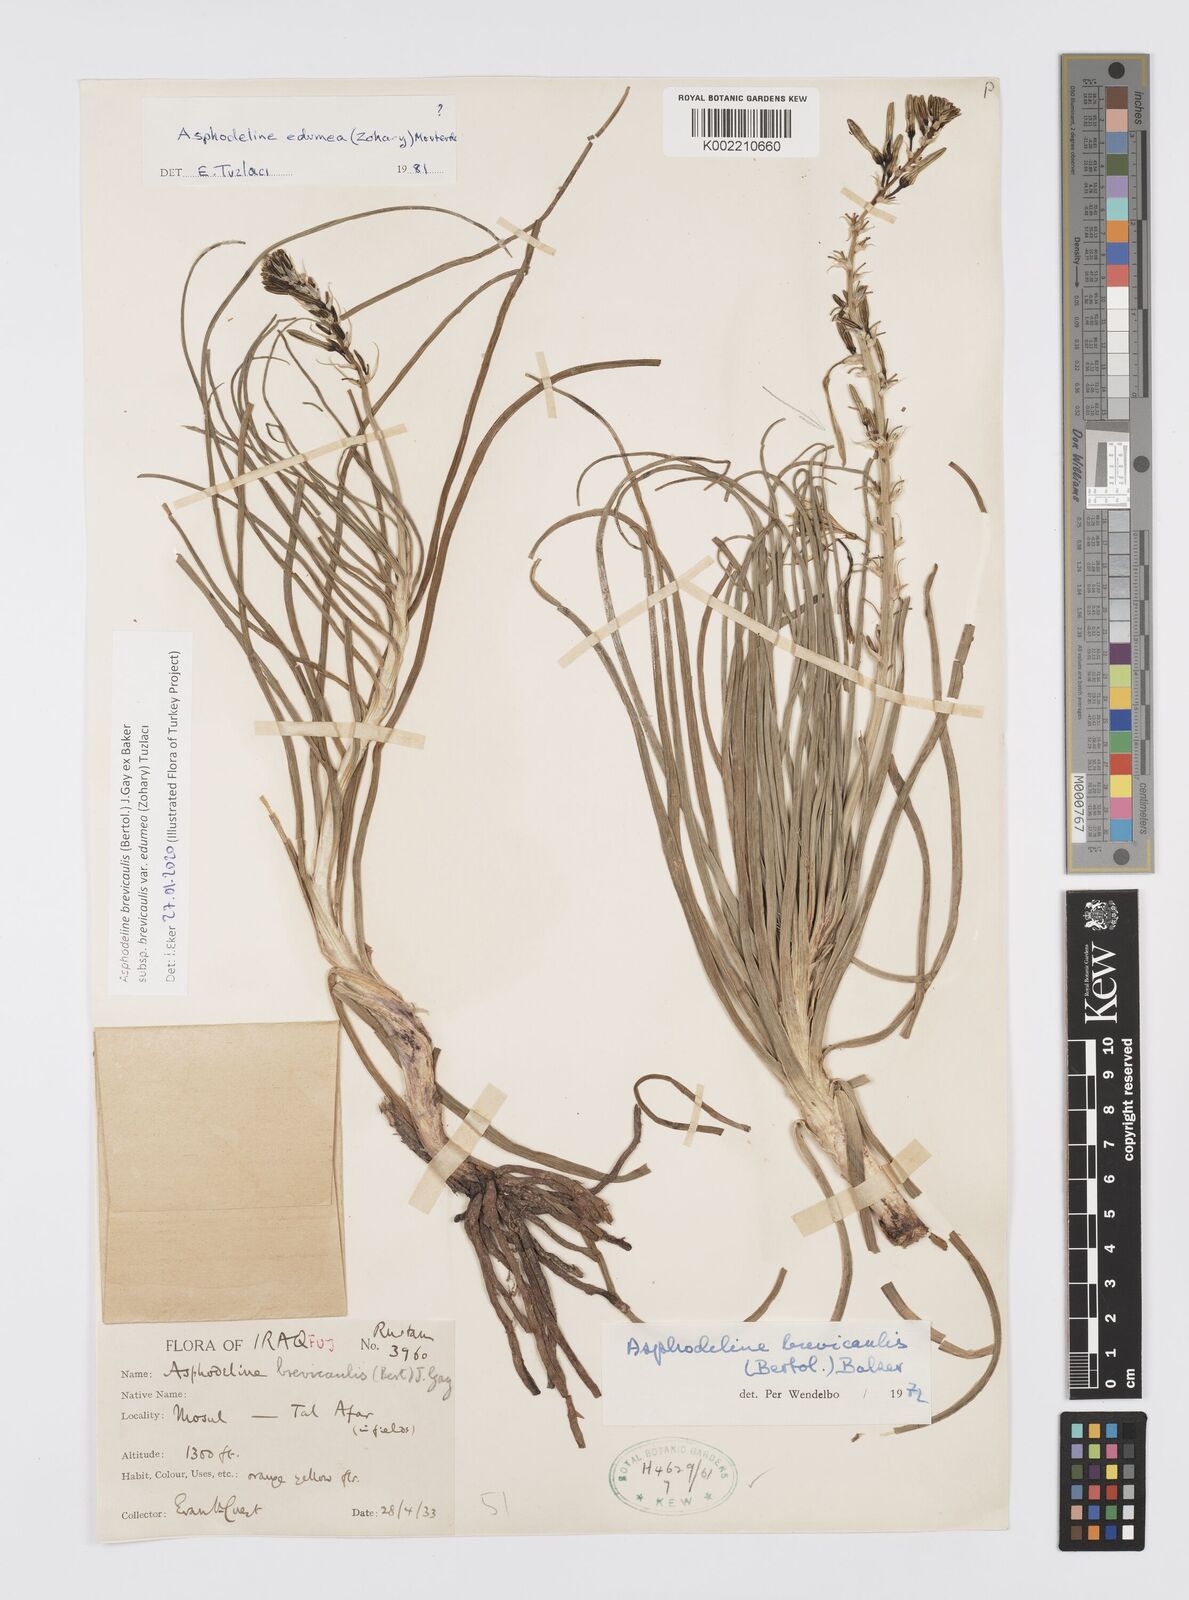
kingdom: Plantae
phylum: Tracheophyta
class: Liliopsida
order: Asparagales
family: Asphodelaceae
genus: Asphodeline
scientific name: Asphodeline brevicaulis
